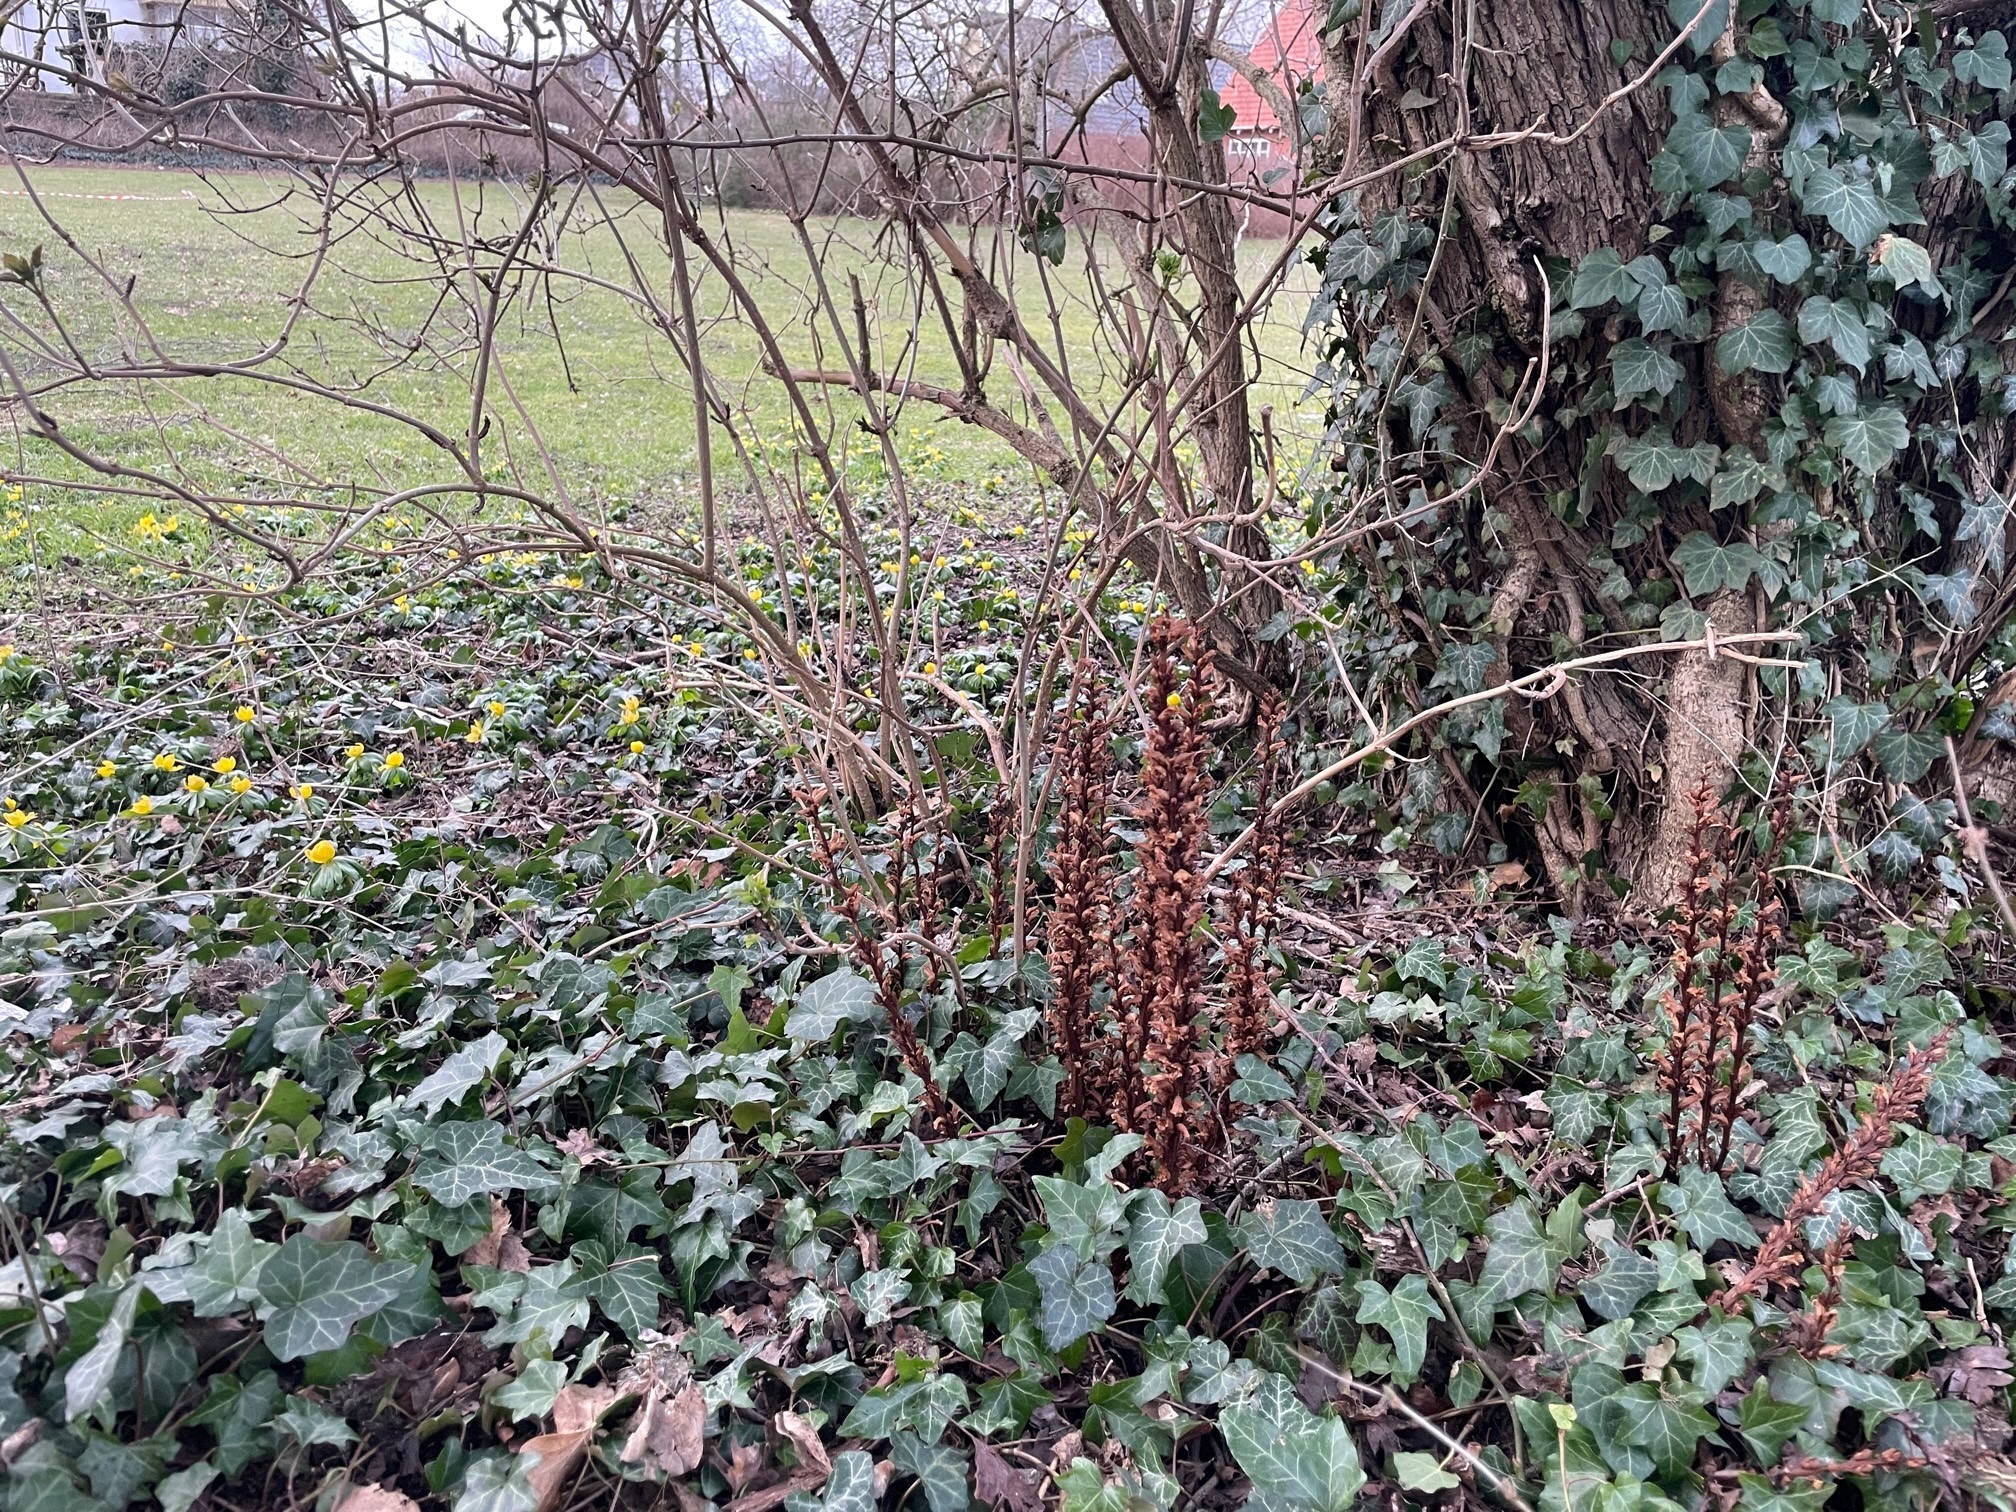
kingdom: Plantae
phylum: Tracheophyta
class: Magnoliopsida
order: Lamiales
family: Orobanchaceae
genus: Orobanche
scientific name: Orobanche hederae
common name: Vedbend-gyvelkvæler
